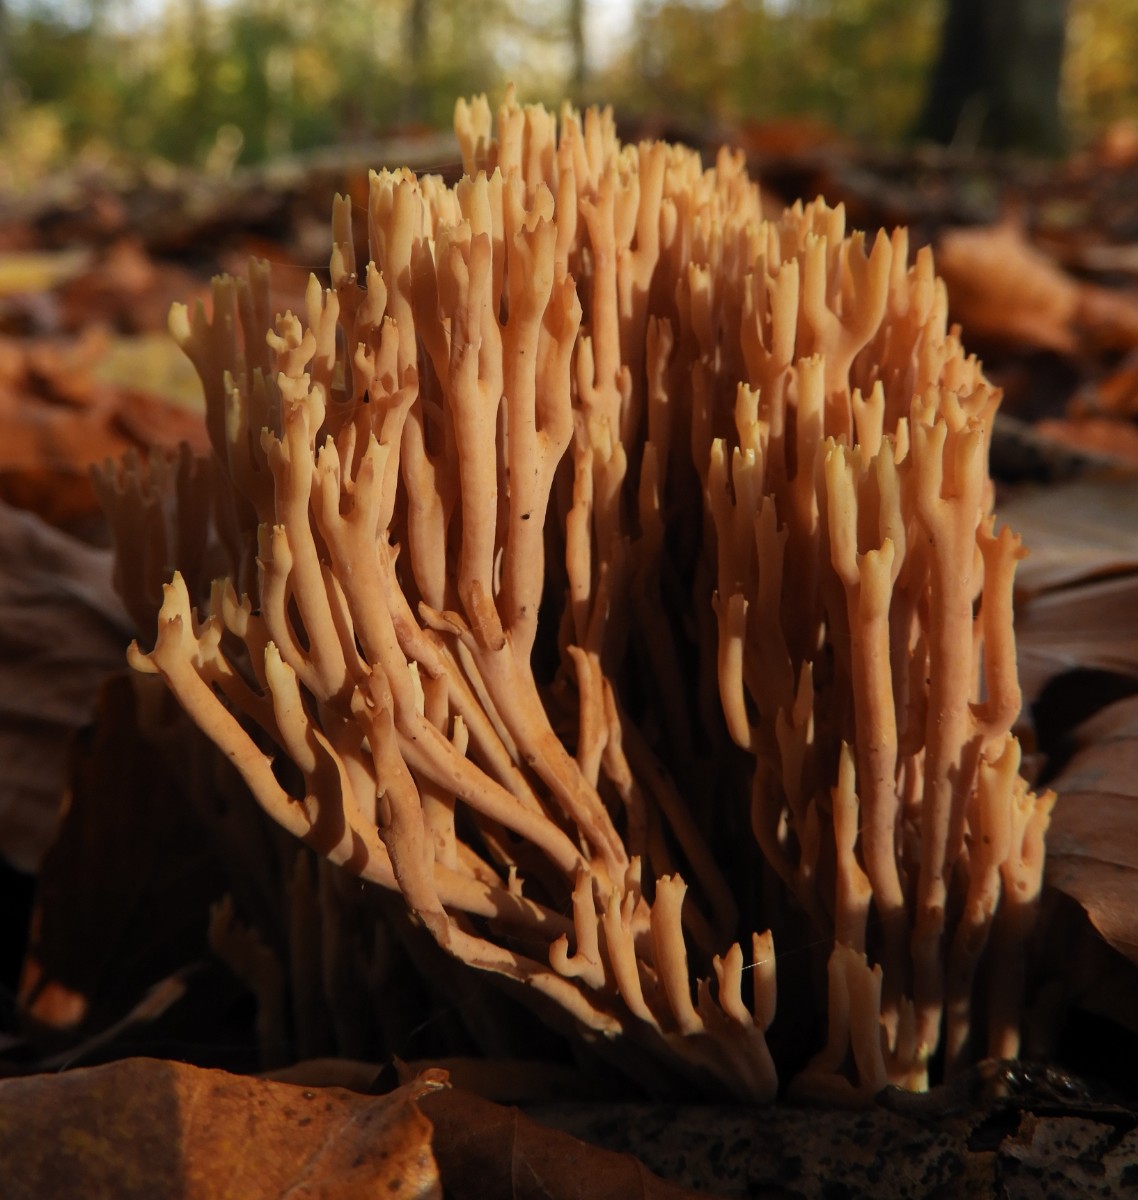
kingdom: Fungi
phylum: Basidiomycota
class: Agaricomycetes
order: Gomphales
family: Gomphaceae
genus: Ramaria
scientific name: Ramaria stricta
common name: rank koralsvamp
